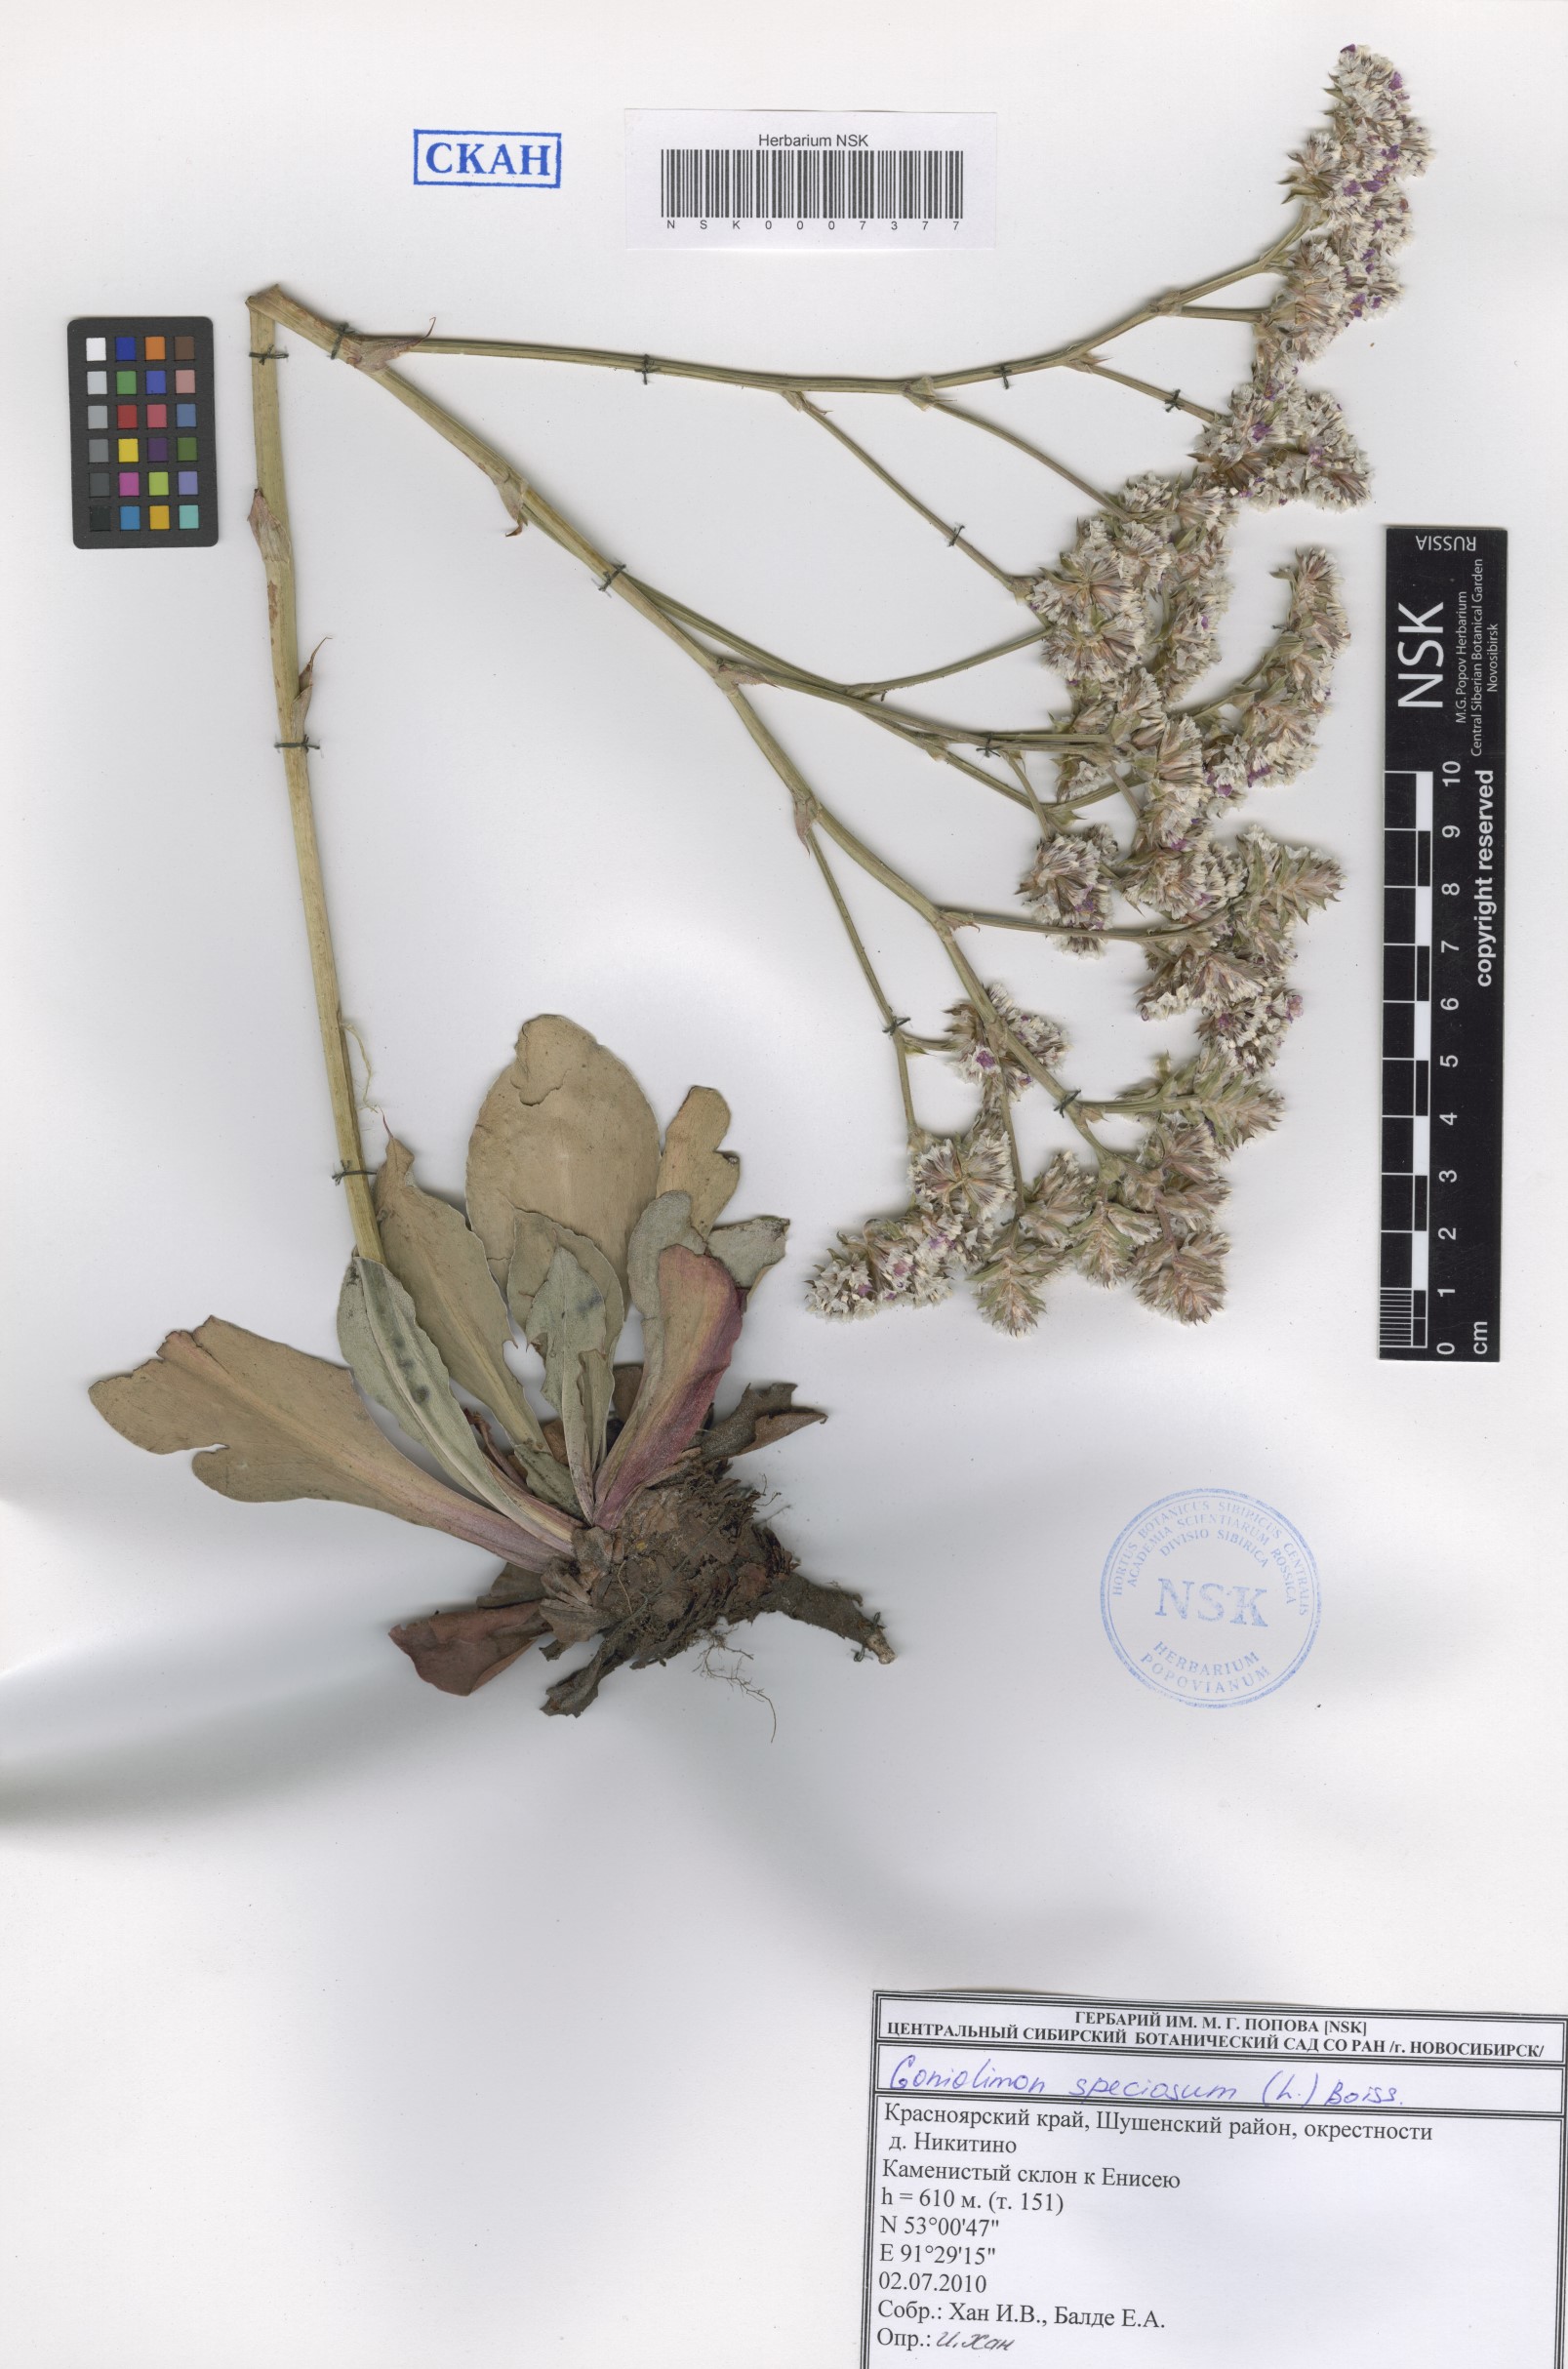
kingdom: Plantae
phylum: Tracheophyta
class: Magnoliopsida
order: Caryophyllales
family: Plumbaginaceae
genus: Goniolimon
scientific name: Goniolimon speciosum
